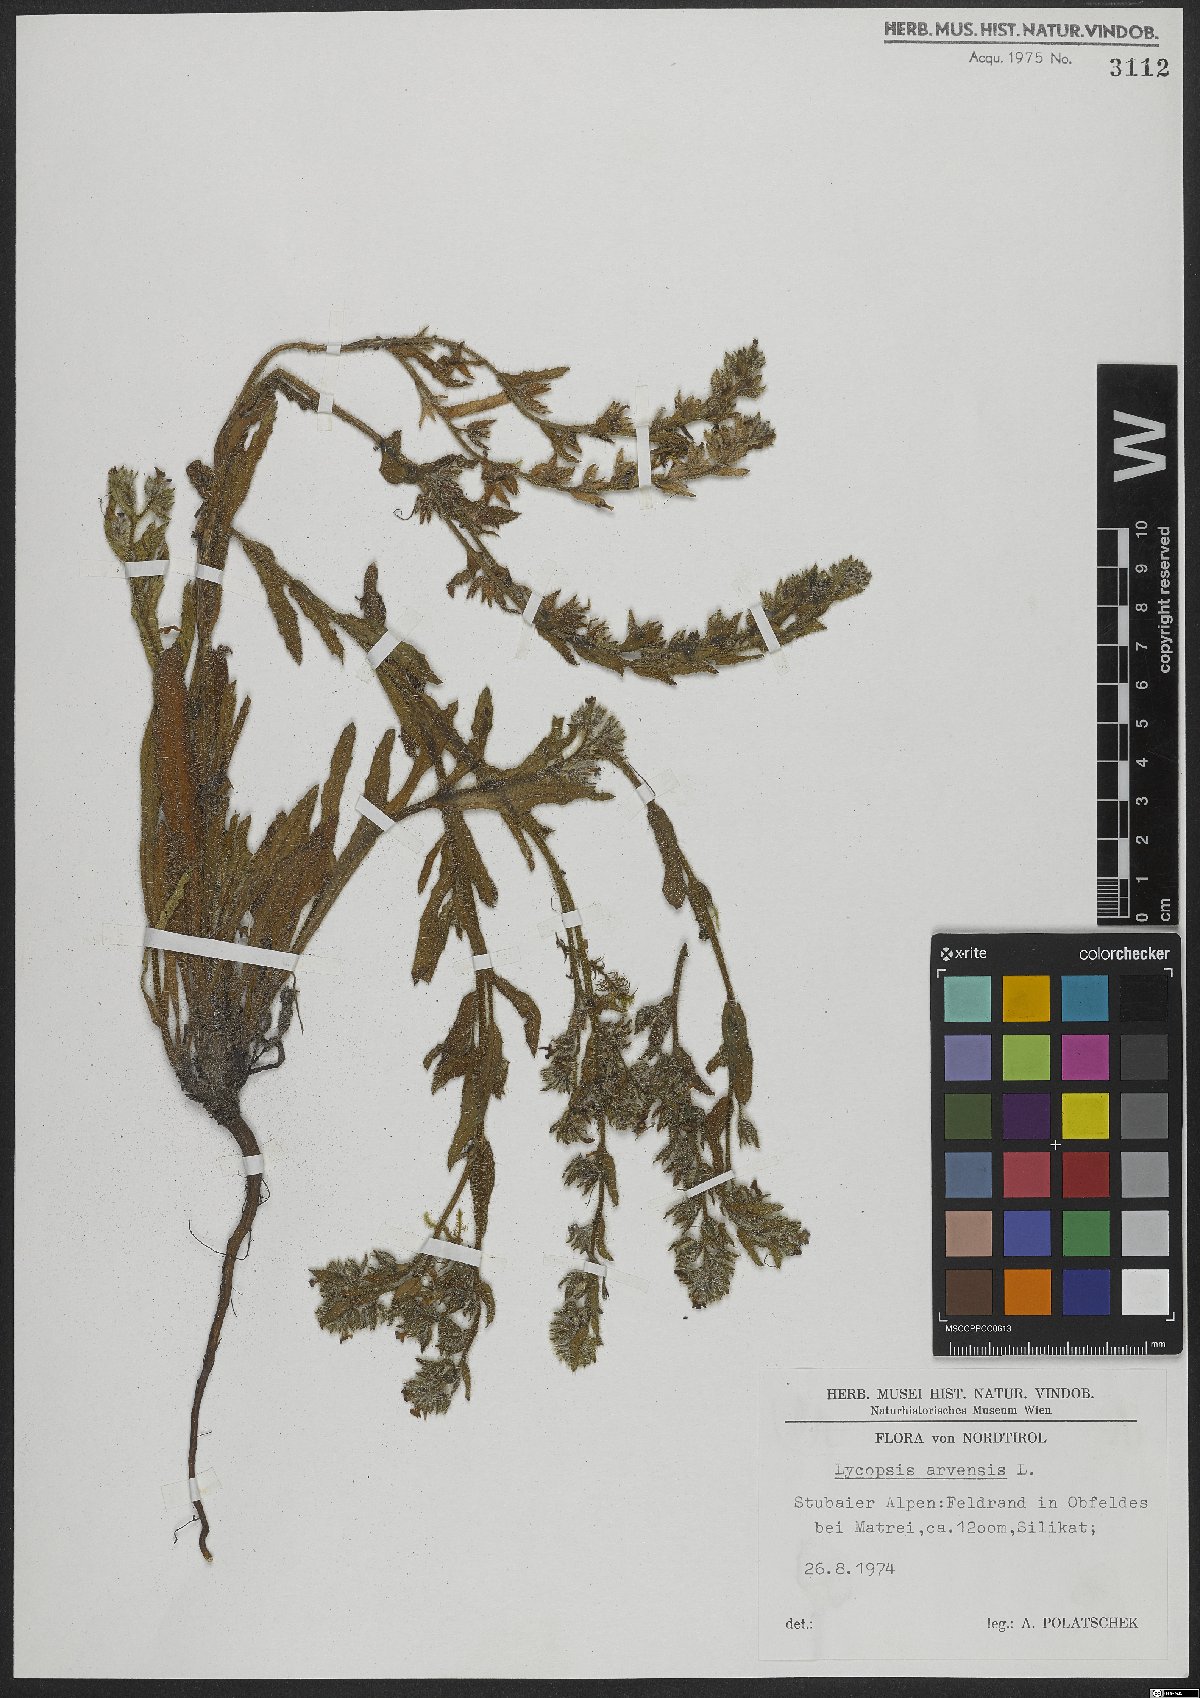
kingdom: Plantae
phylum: Tracheophyta
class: Magnoliopsida
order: Boraginales
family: Boraginaceae
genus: Lycopsis
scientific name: Lycopsis arvensis
